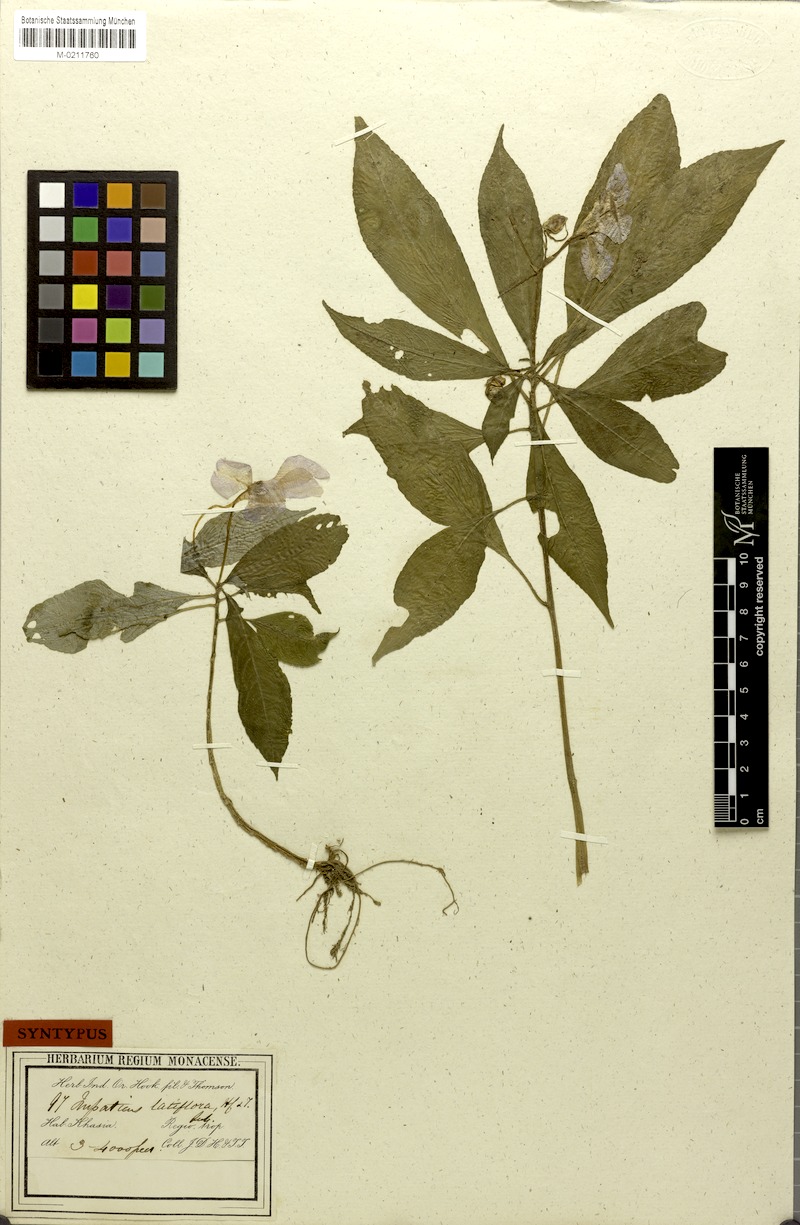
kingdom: Plantae
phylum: Tracheophyta
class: Magnoliopsida
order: Ericales
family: Balsaminaceae
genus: Impatiens
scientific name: Impatiens latiflora
